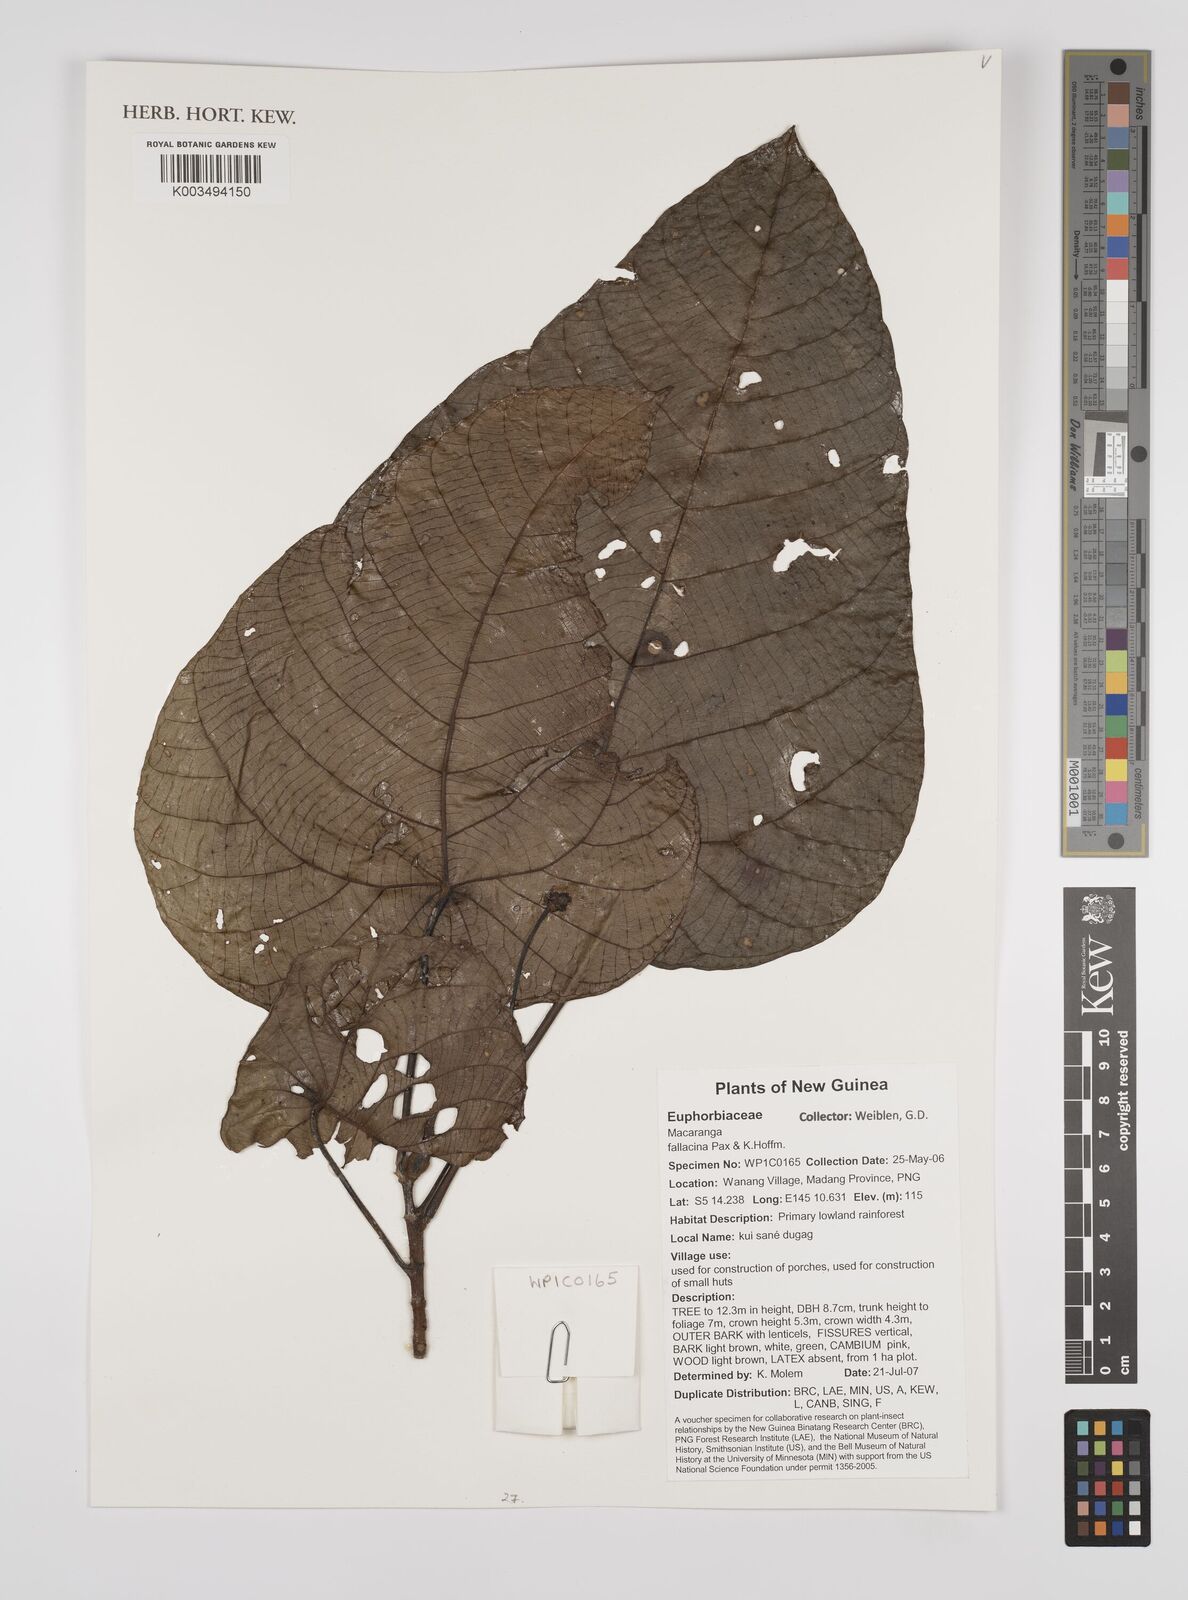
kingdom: Plantae
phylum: Tracheophyta
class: Magnoliopsida
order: Malpighiales
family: Euphorbiaceae
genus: Macaranga
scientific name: Macaranga fallacina
